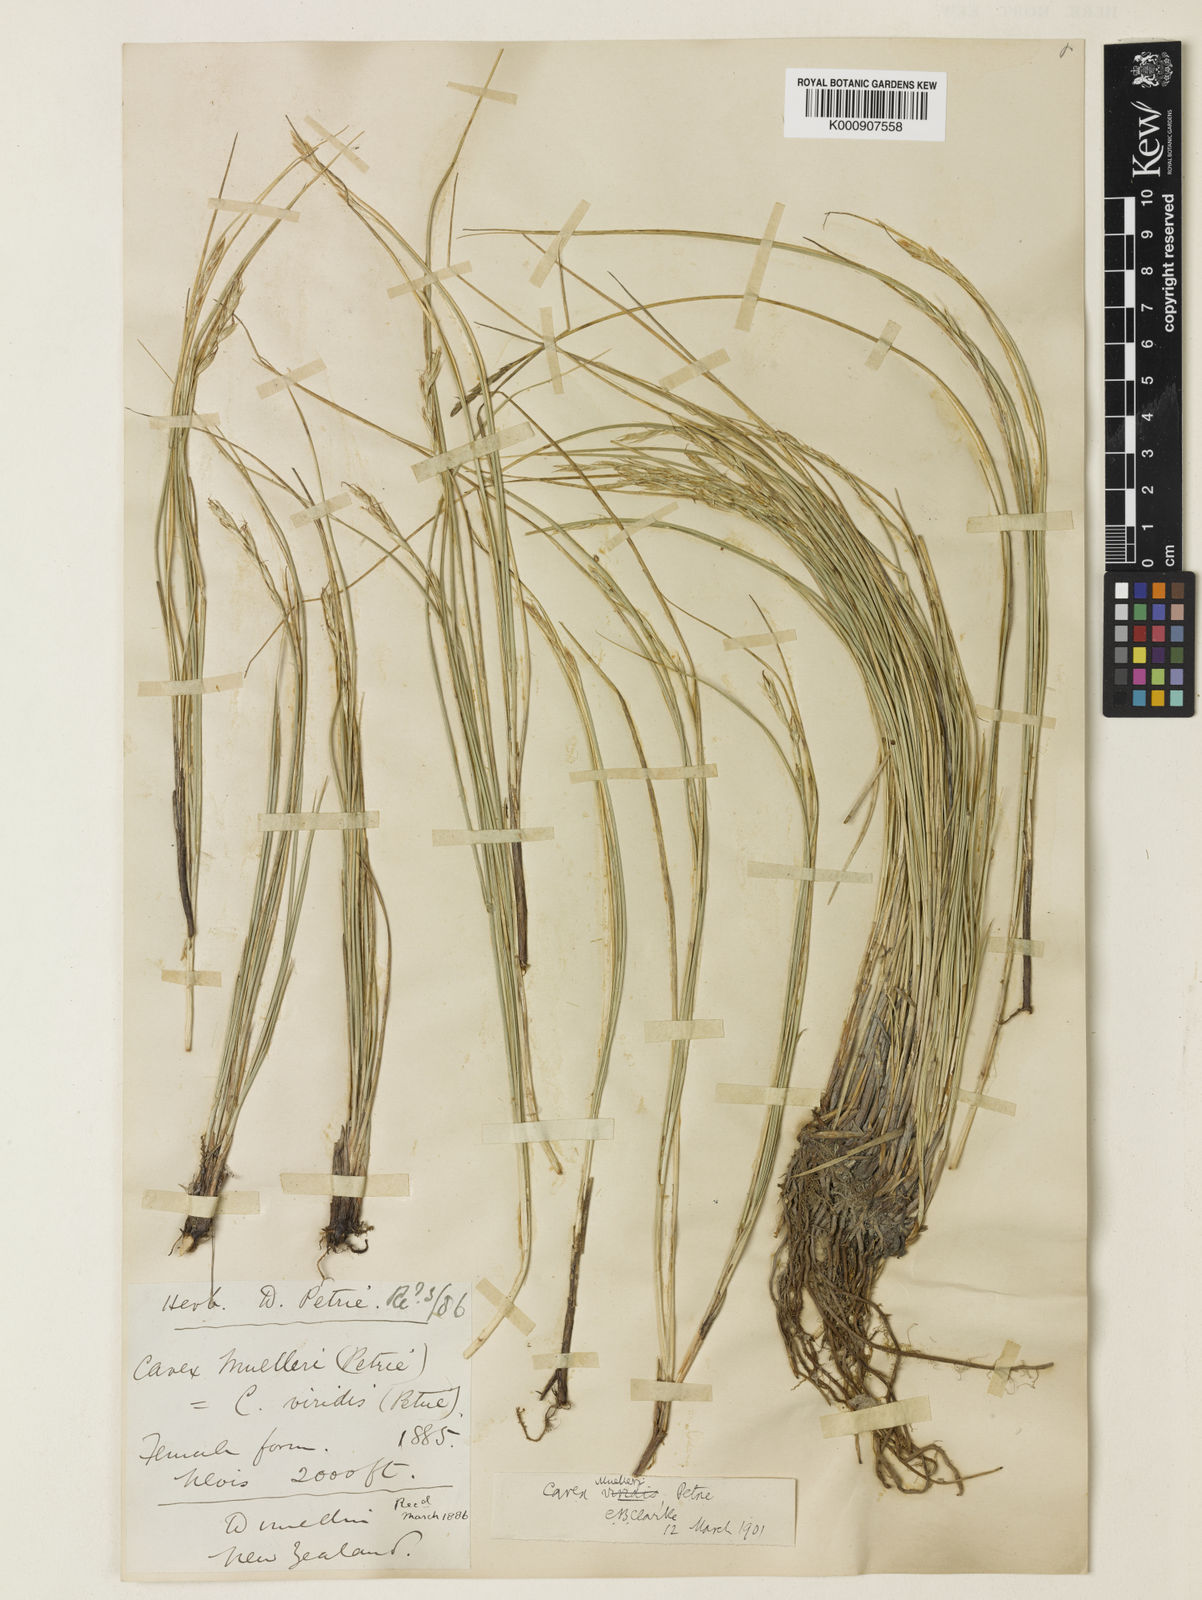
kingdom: Plantae
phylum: Tracheophyta
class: Liliopsida
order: Poales
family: Cyperaceae
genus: Carex
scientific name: Carex muelleri
